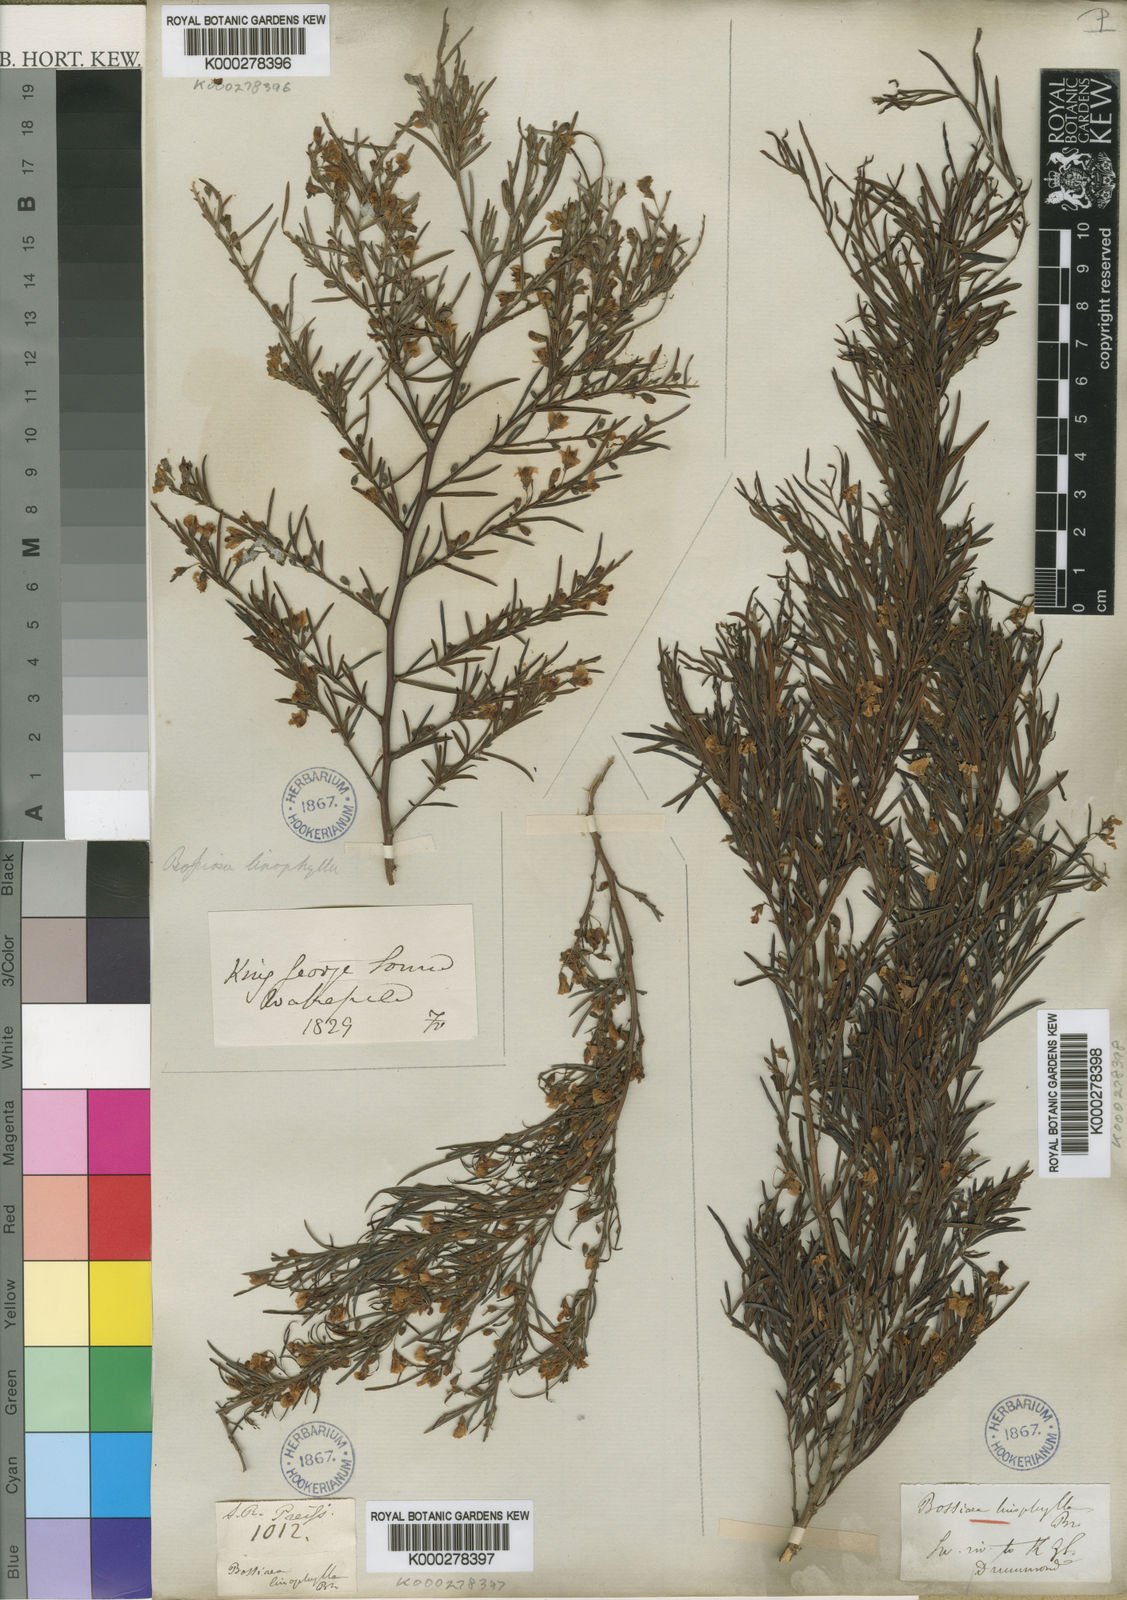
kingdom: Plantae
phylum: Tracheophyta
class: Magnoliopsida
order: Fabales
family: Fabaceae
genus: Bossiaea
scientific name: Bossiaea linophylla
